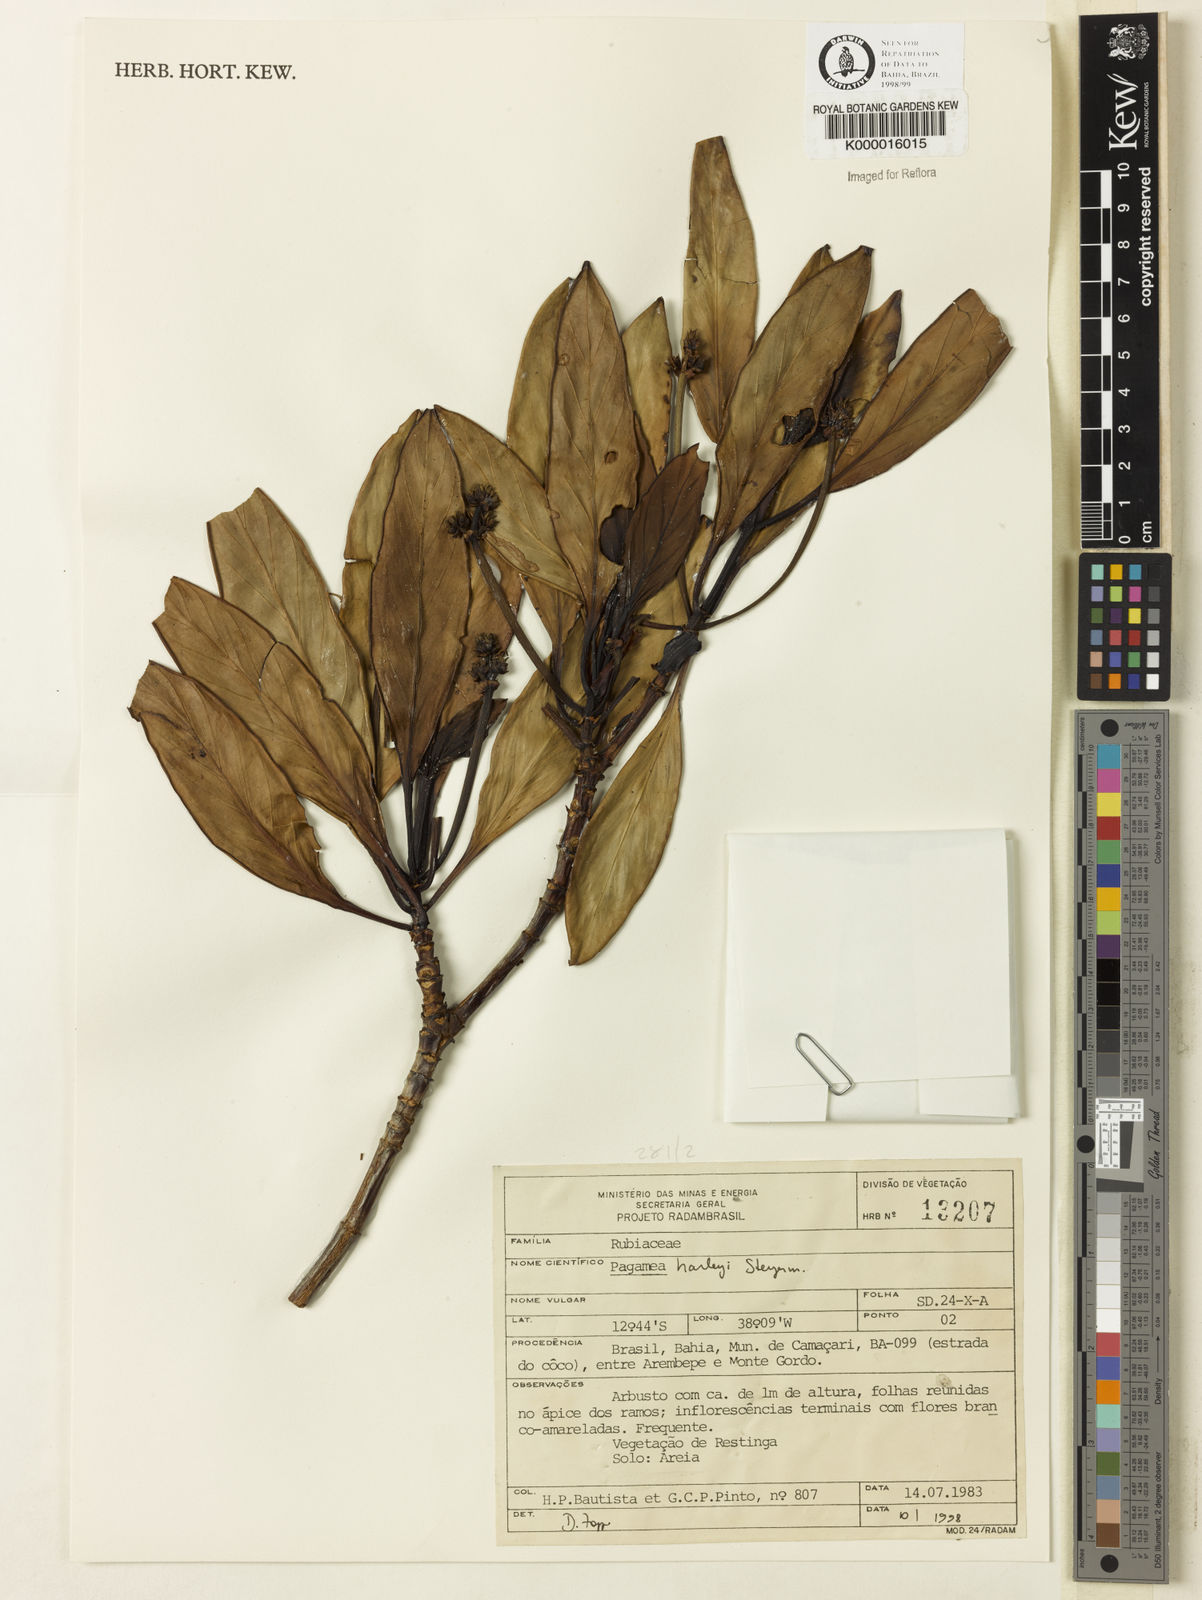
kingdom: Plantae
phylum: Tracheophyta
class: Magnoliopsida
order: Gentianales
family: Rubiaceae
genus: Pagamea
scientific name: Pagamea harleyi
